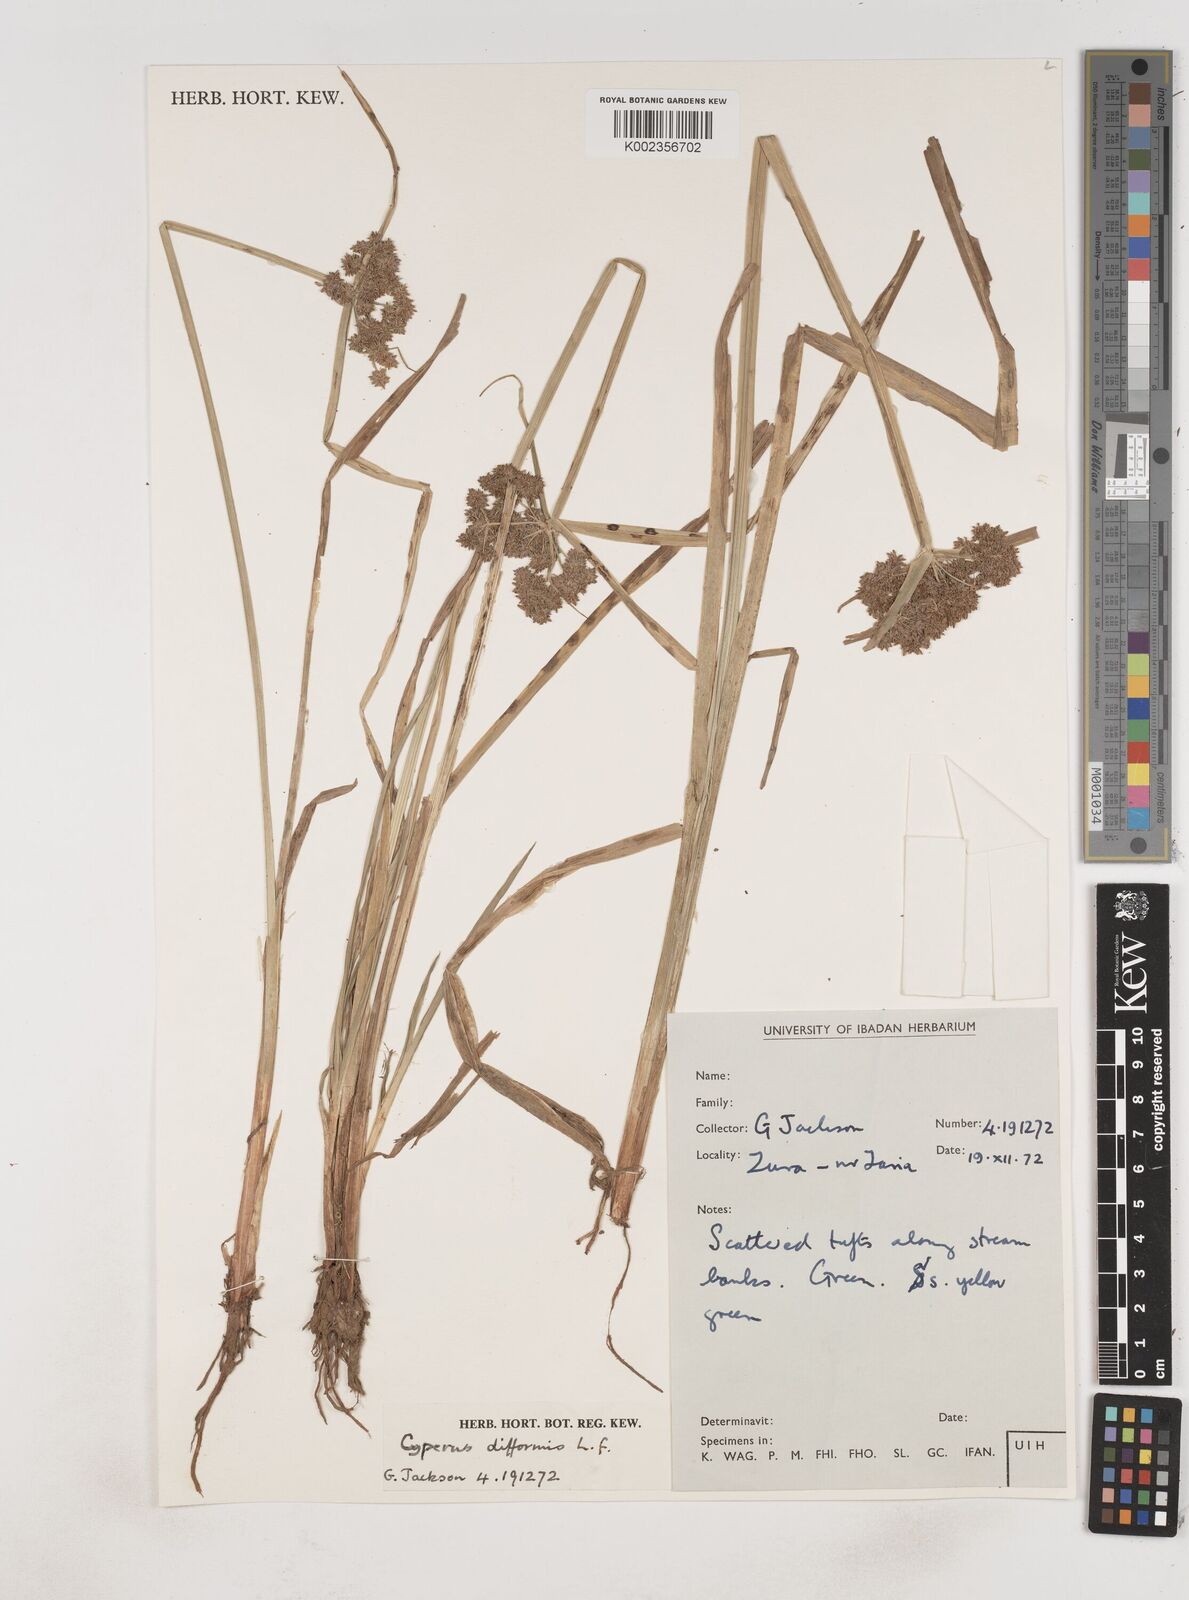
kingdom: Plantae
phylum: Tracheophyta
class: Liliopsida
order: Poales
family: Cyperaceae
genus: Cyperus
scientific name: Cyperus difformis
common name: Variable flatsedge
